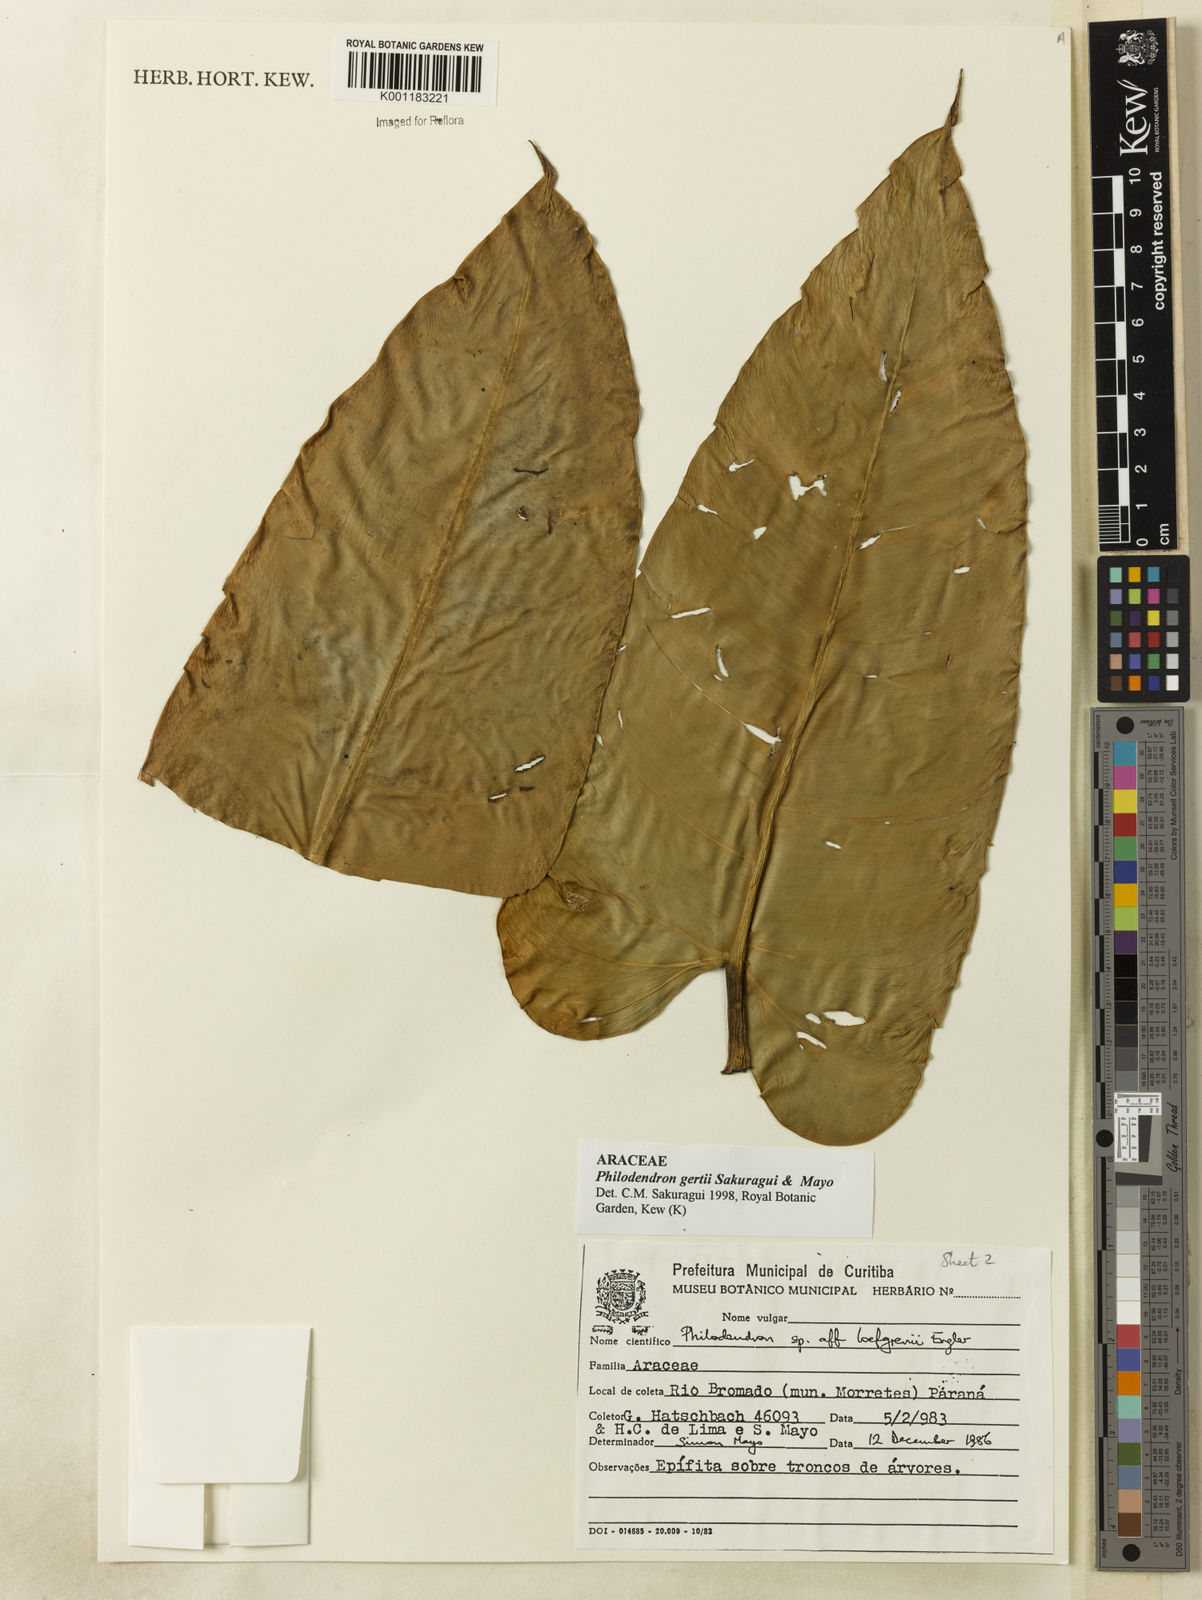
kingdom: Plantae
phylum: Tracheophyta
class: Liliopsida
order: Alismatales
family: Araceae
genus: Philodendron
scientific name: Philodendron
